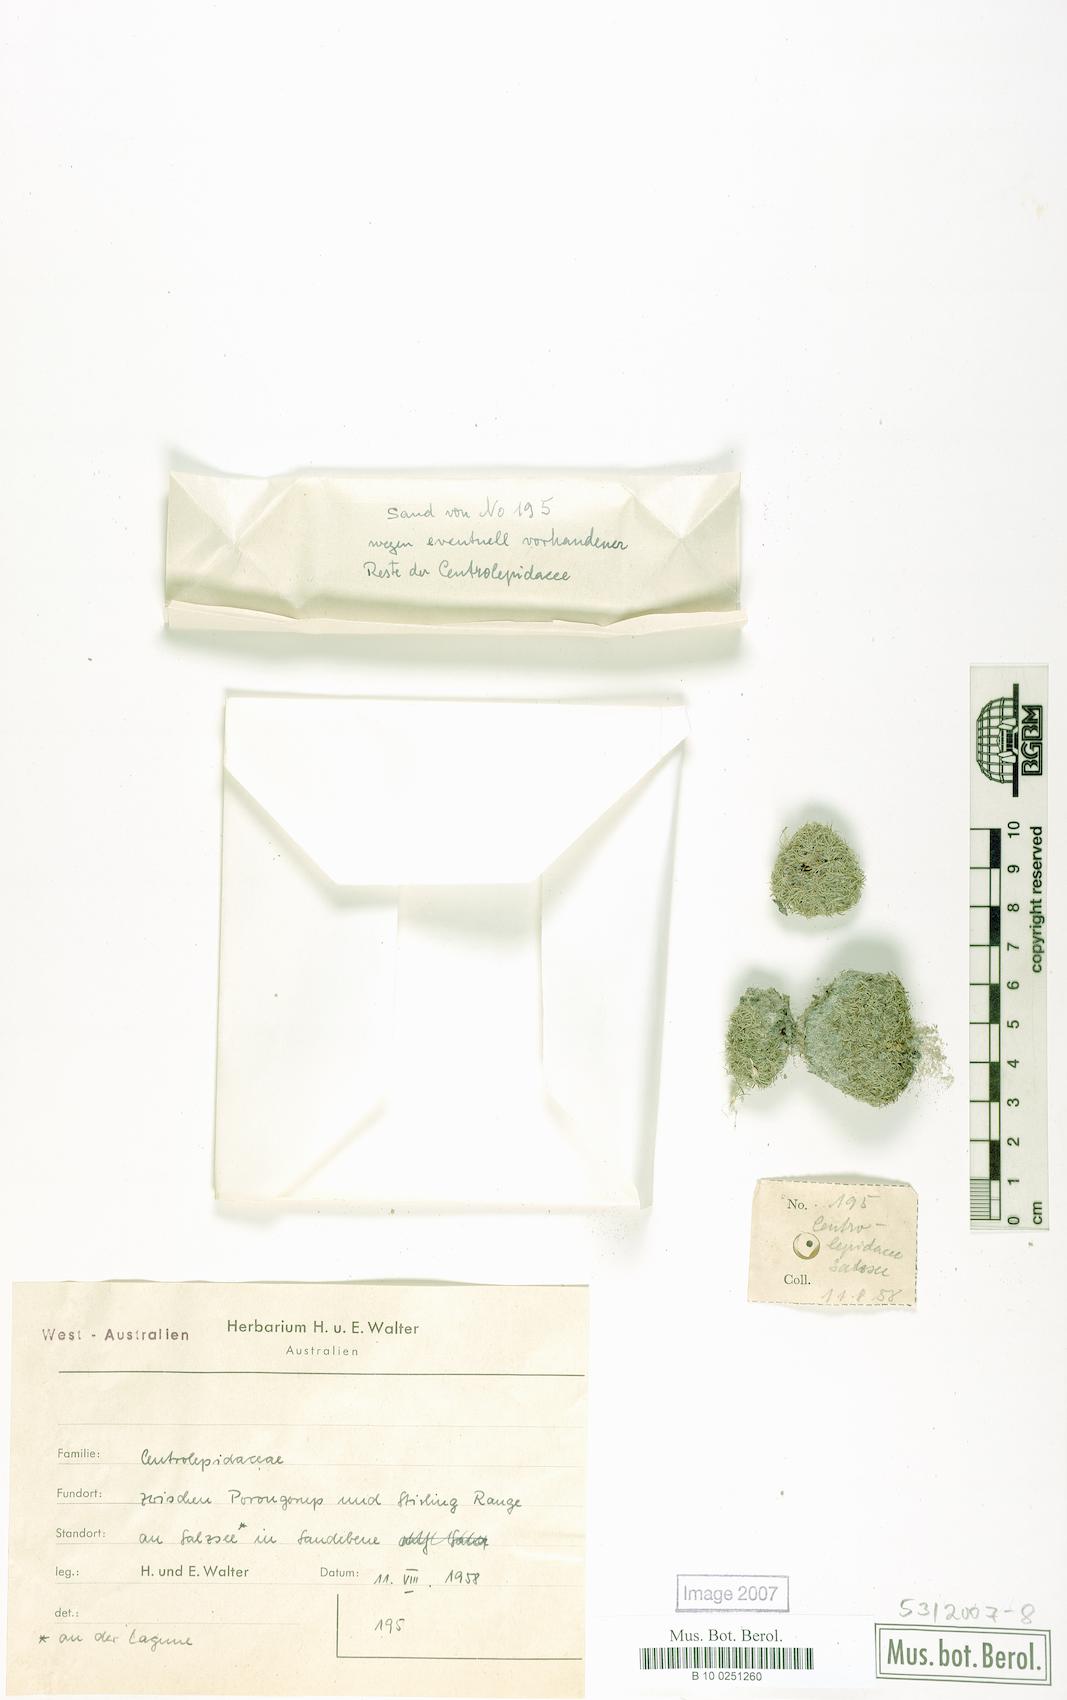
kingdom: Plantae
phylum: Tracheophyta
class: Liliopsida
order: Poales
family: Centrolepidaceae
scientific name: Centrolepidaceae
